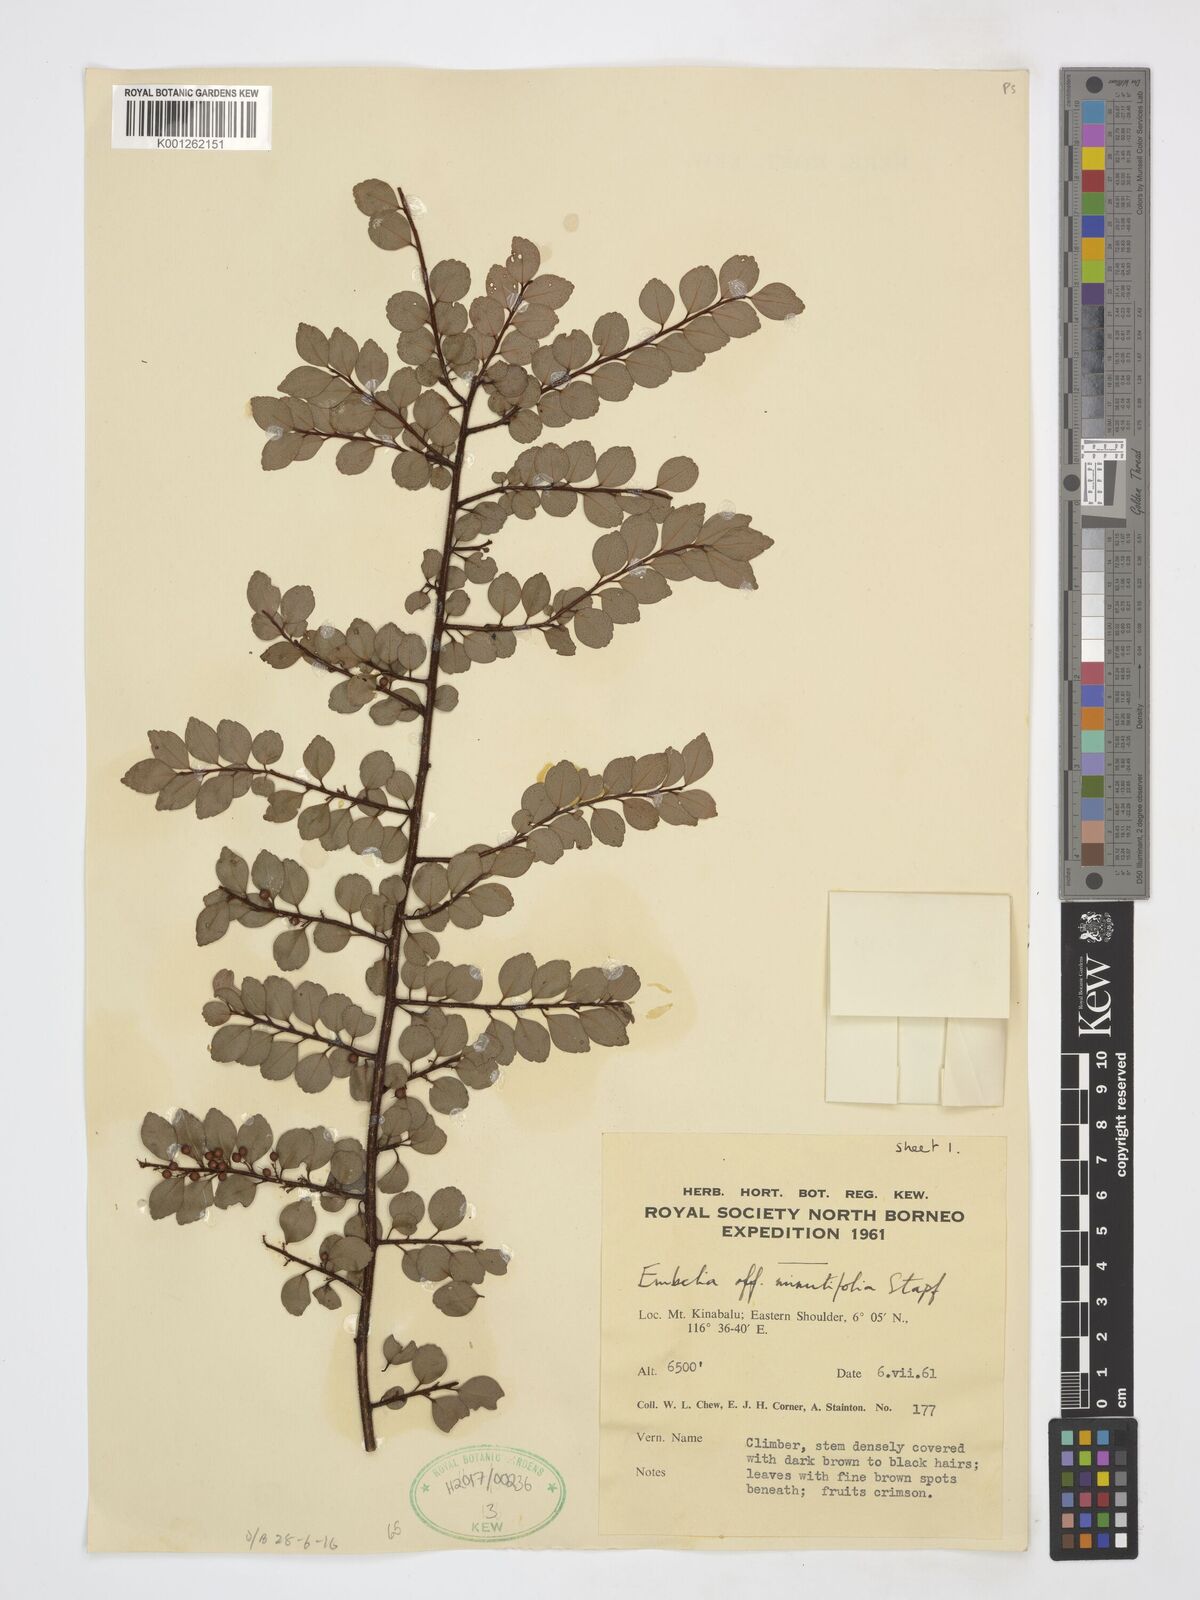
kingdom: Plantae
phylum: Tracheophyta
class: Magnoliopsida
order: Ericales
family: Primulaceae
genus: Embelia
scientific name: Embelia minutifolia
